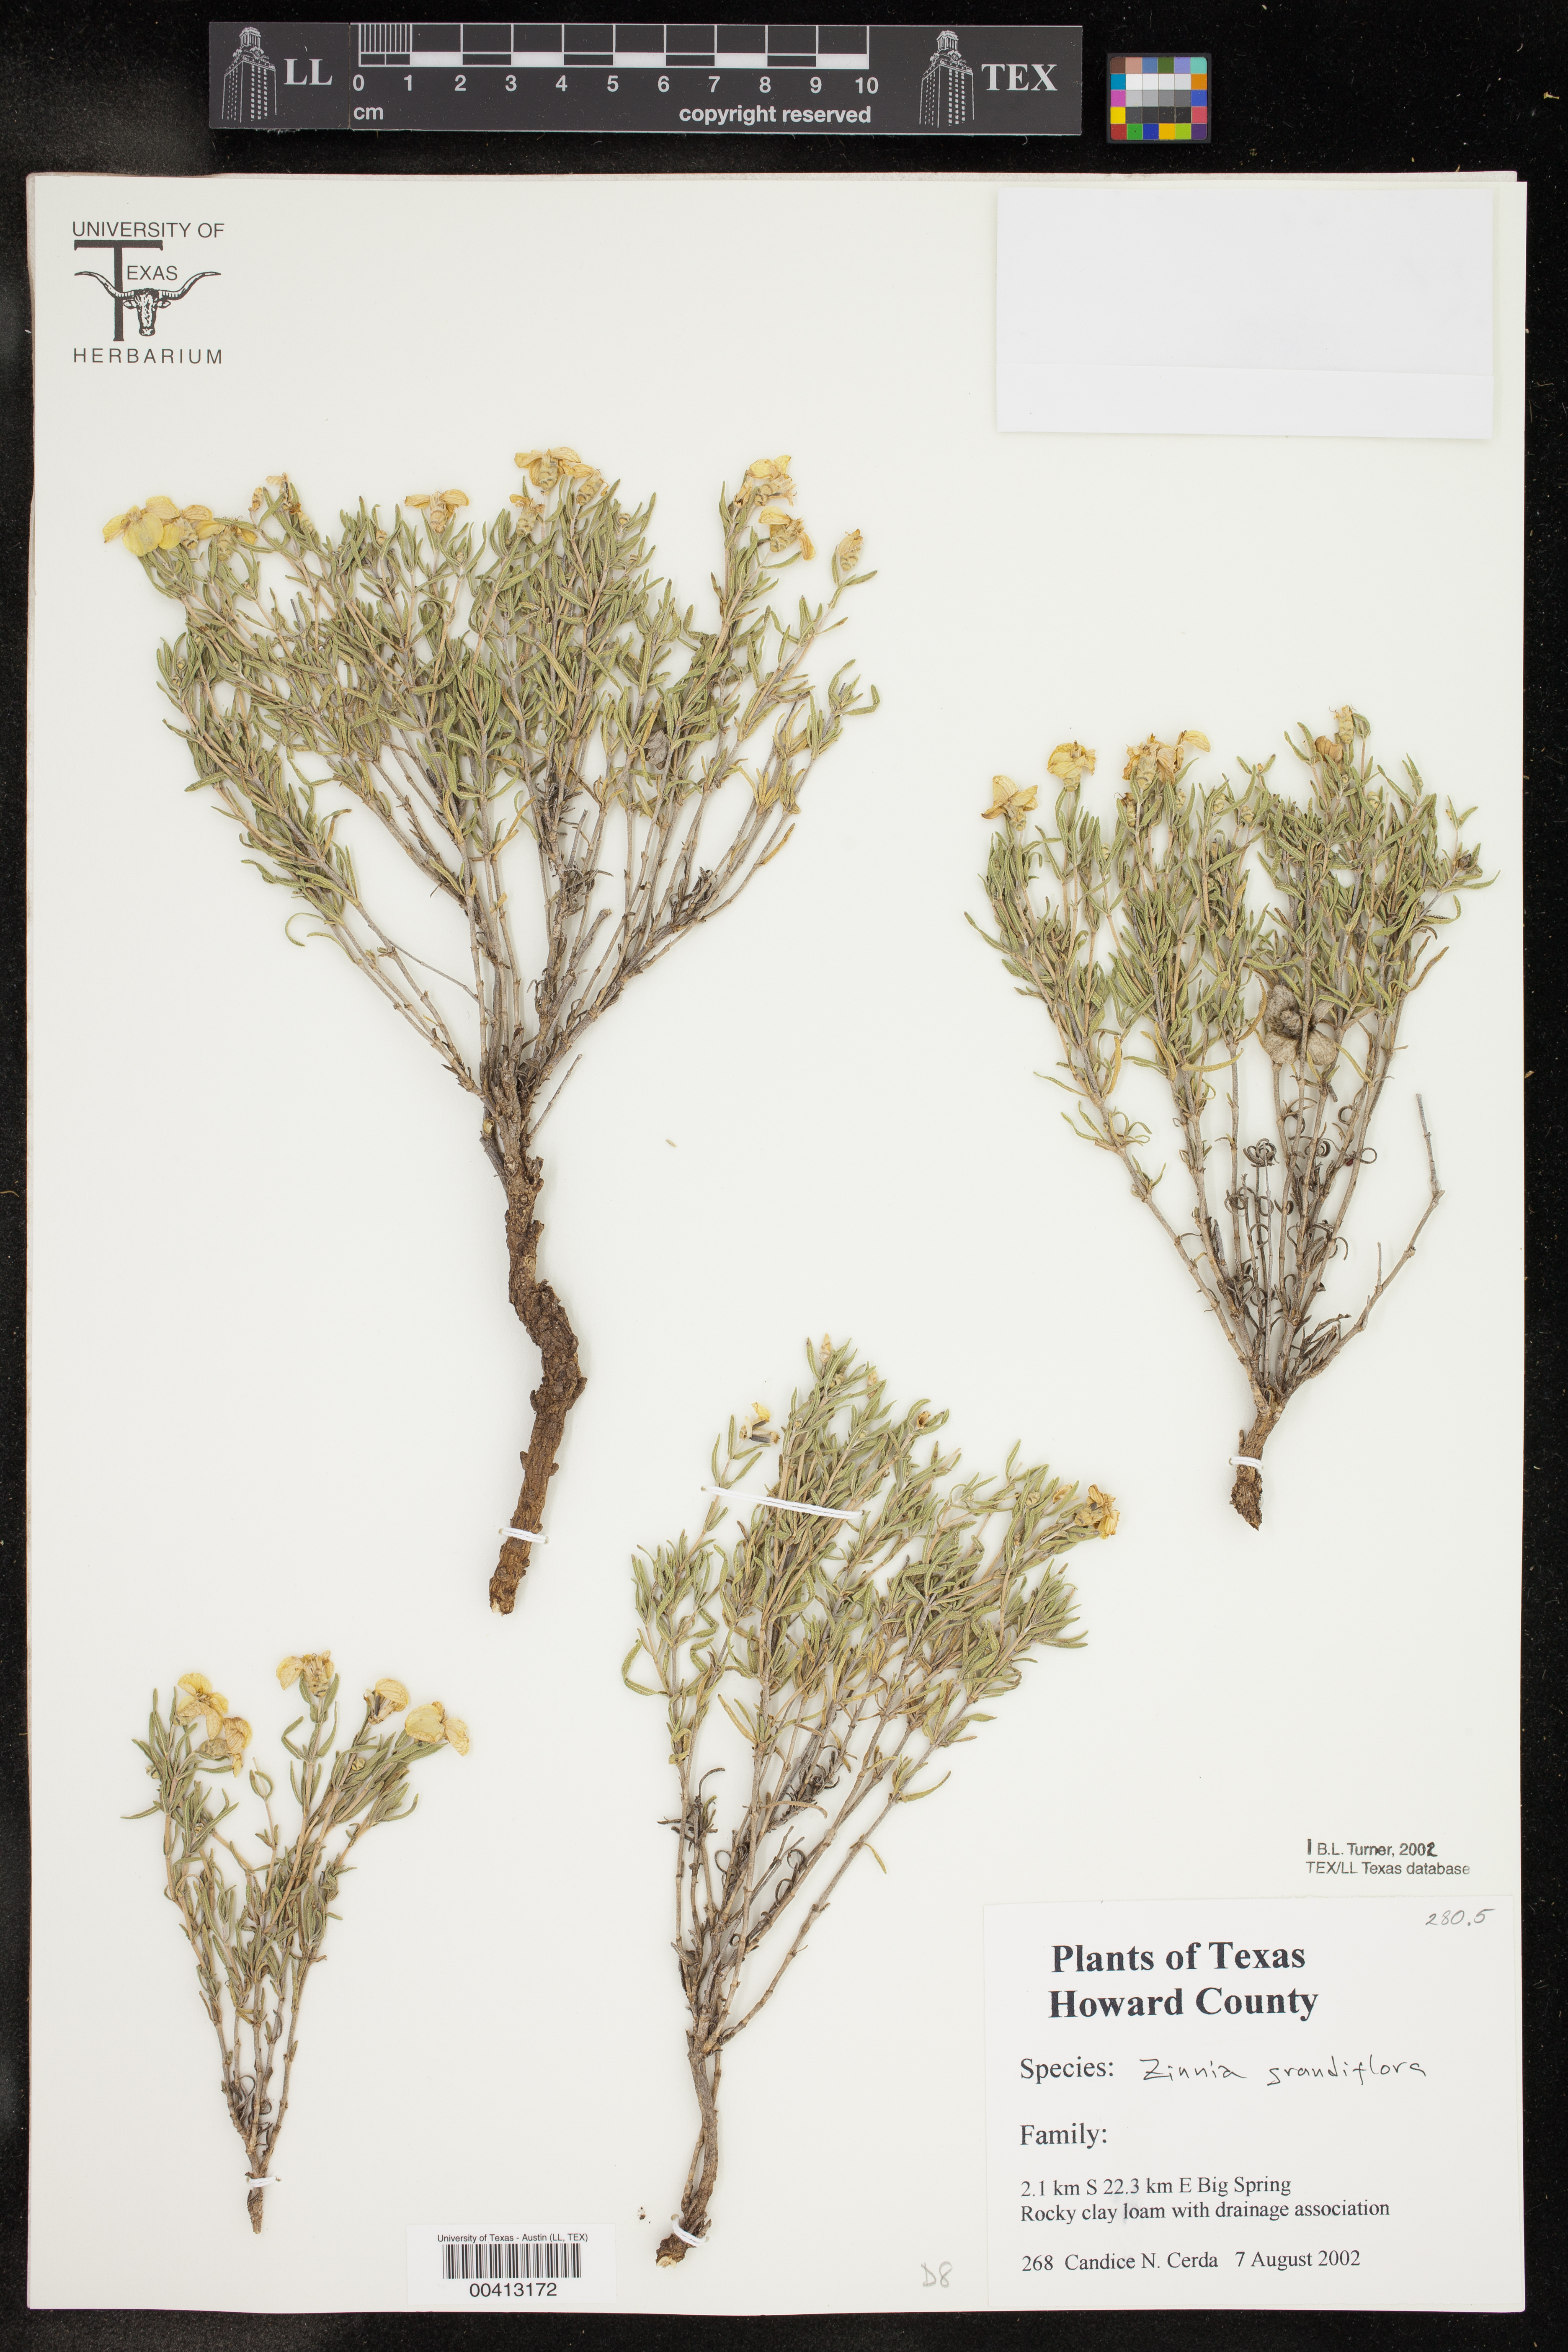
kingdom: Plantae
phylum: Tracheophyta
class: Magnoliopsida
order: Asterales
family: Asteraceae
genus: Zinnia
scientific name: Zinnia grandiflora
